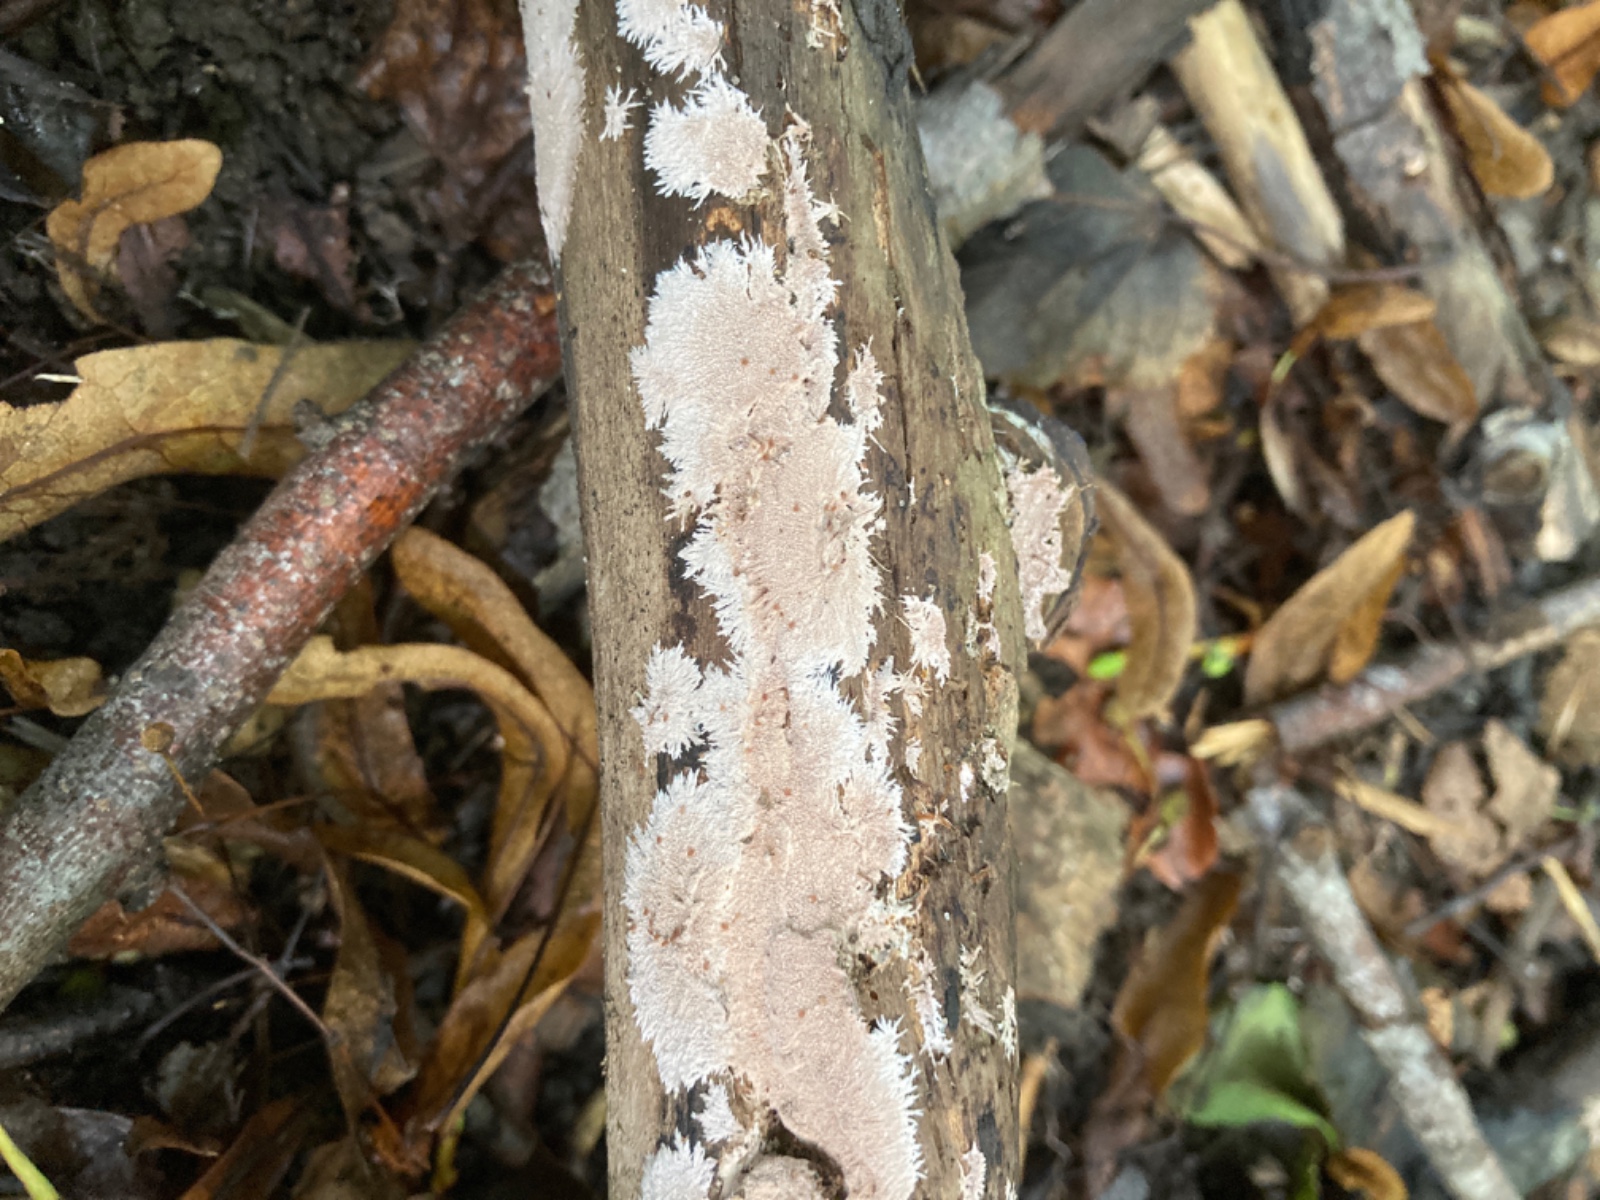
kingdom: Fungi
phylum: Basidiomycota
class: Agaricomycetes
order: Polyporales
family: Steccherinaceae
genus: Steccherinum
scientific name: Steccherinum fimbriatum
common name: trådet skønpig
